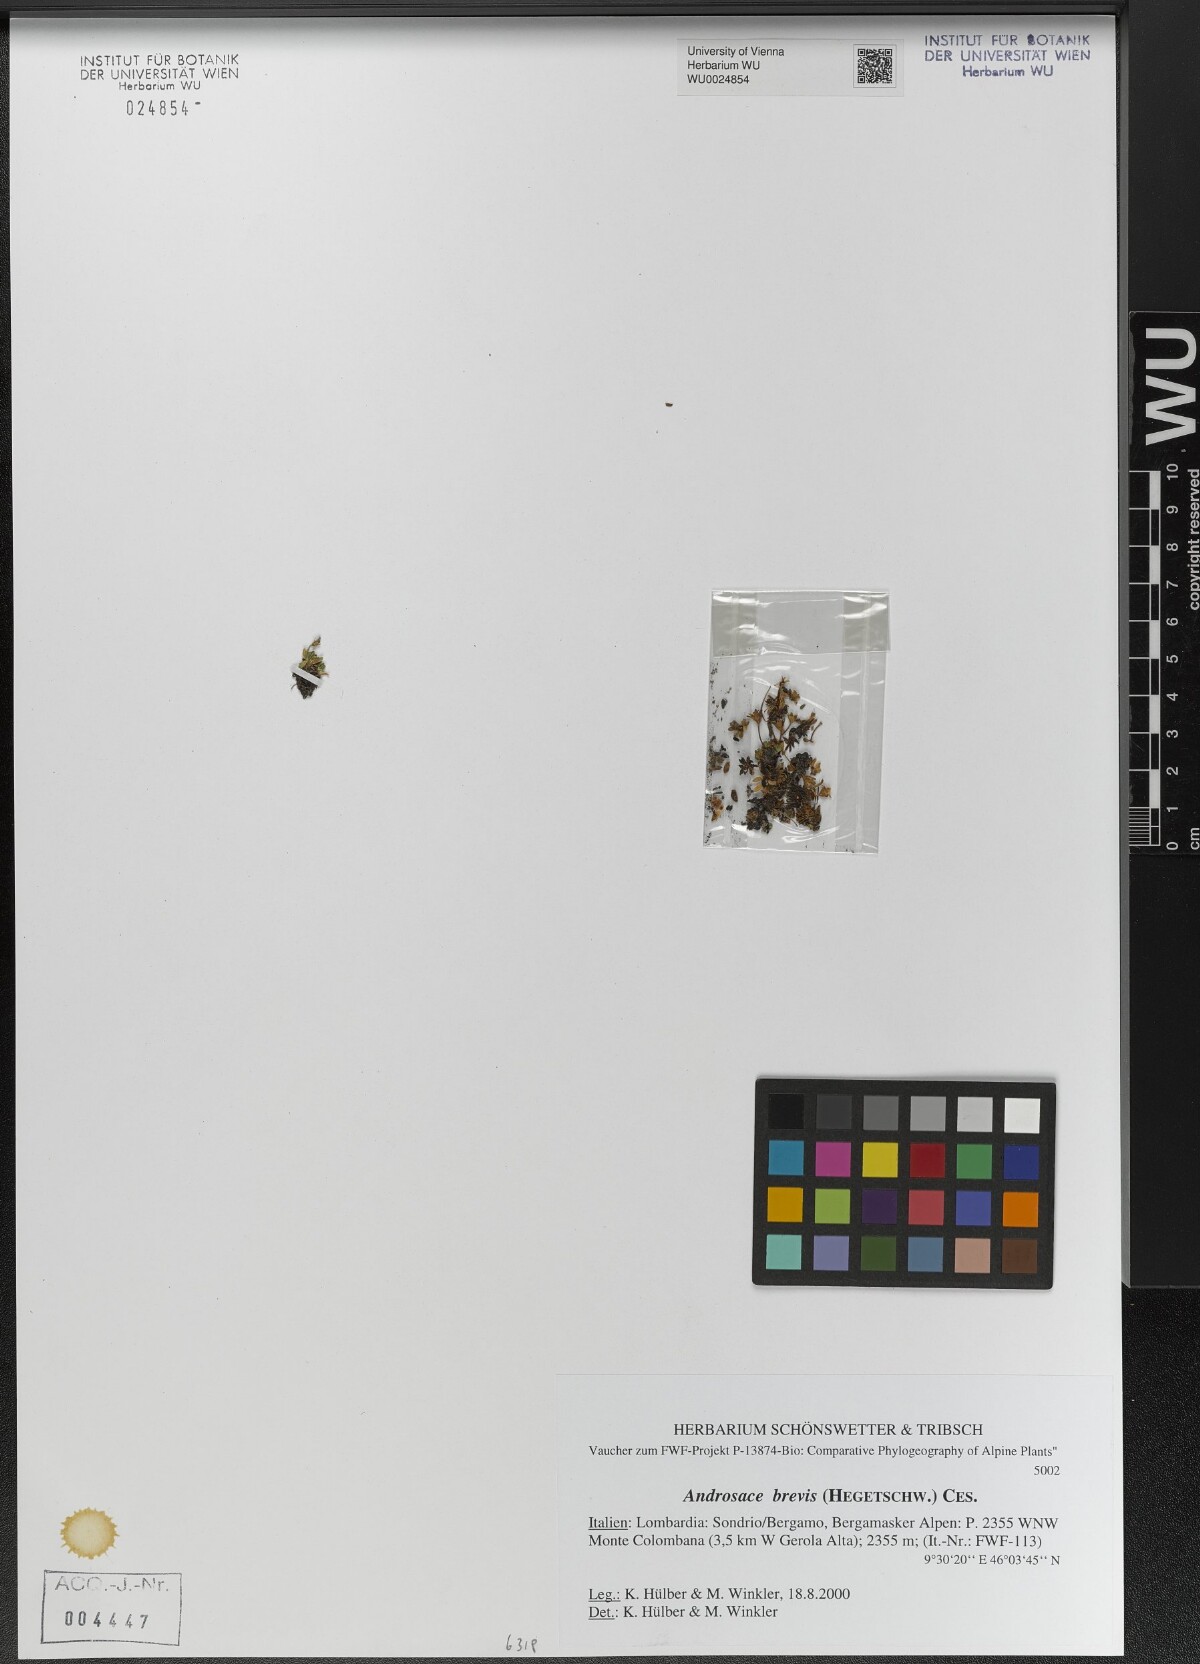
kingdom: Plantae
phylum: Tracheophyta
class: Magnoliopsida
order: Ericales
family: Primulaceae
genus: Androsace
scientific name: Androsace brevis
